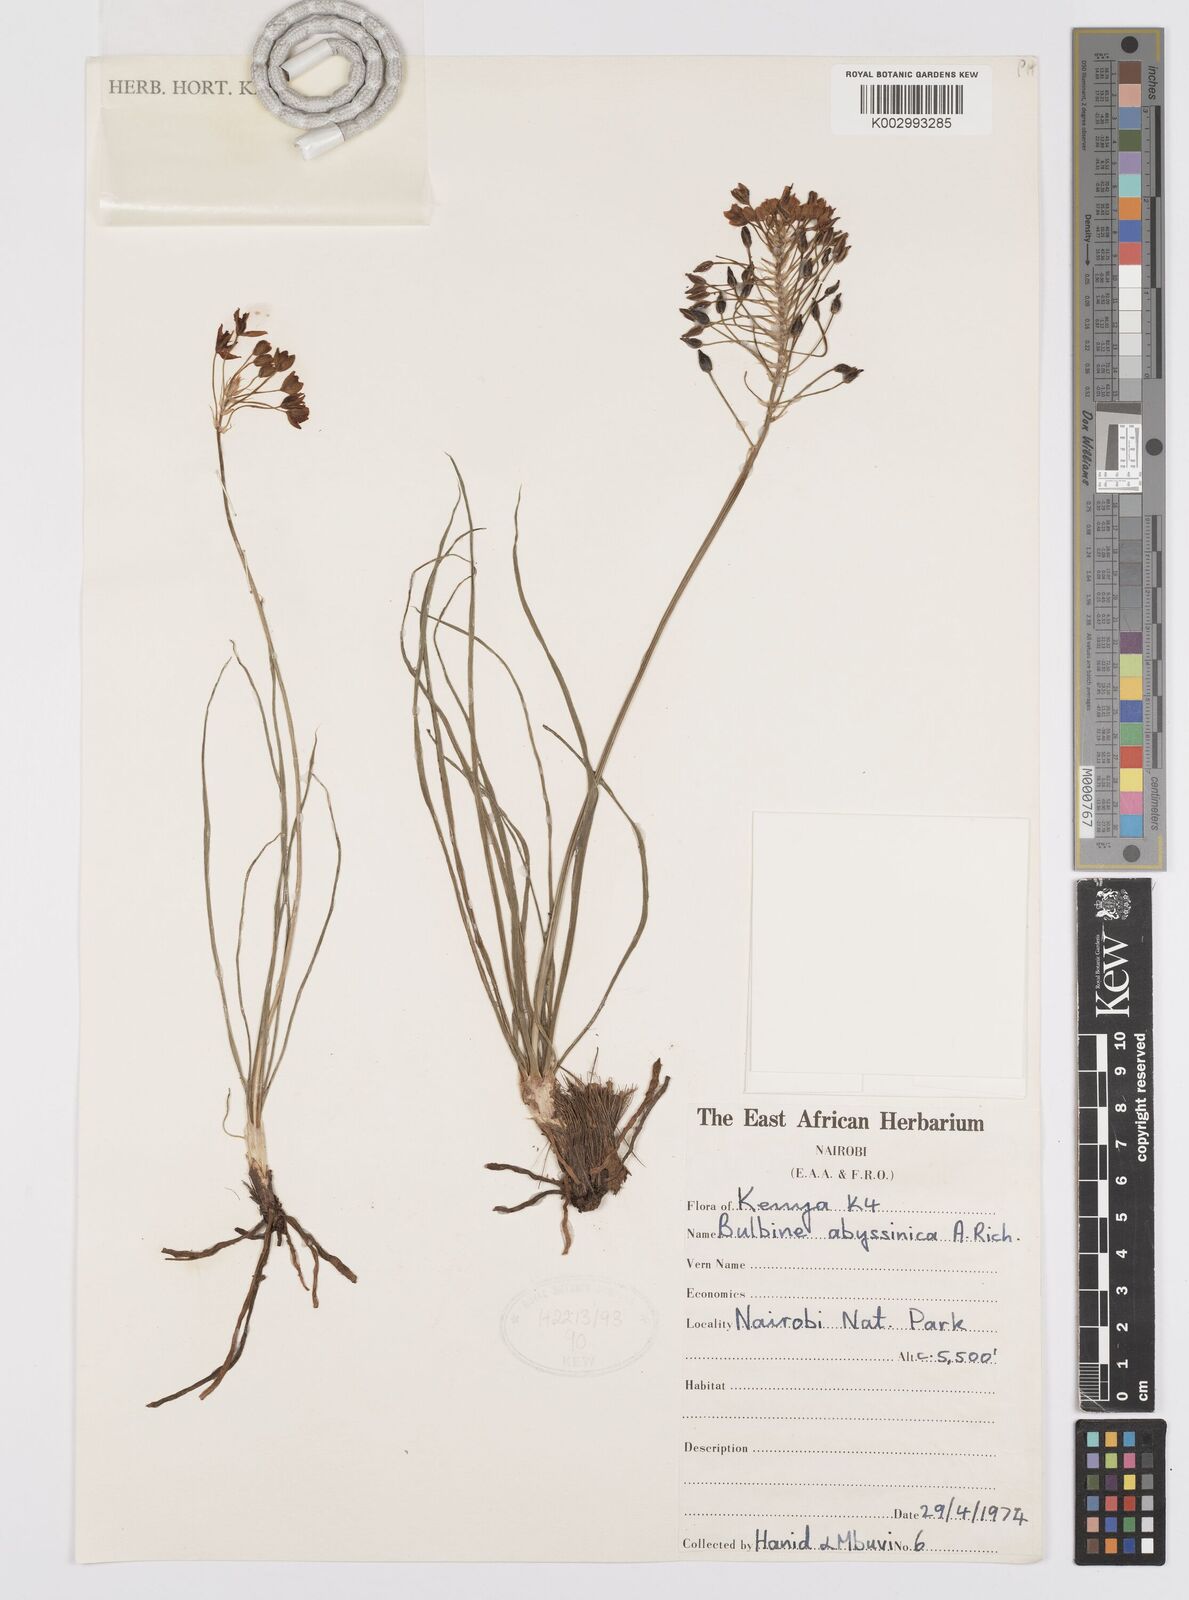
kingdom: Plantae
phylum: Tracheophyta
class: Liliopsida
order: Asparagales
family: Asphodelaceae
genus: Bulbine
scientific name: Bulbine abyssinica
